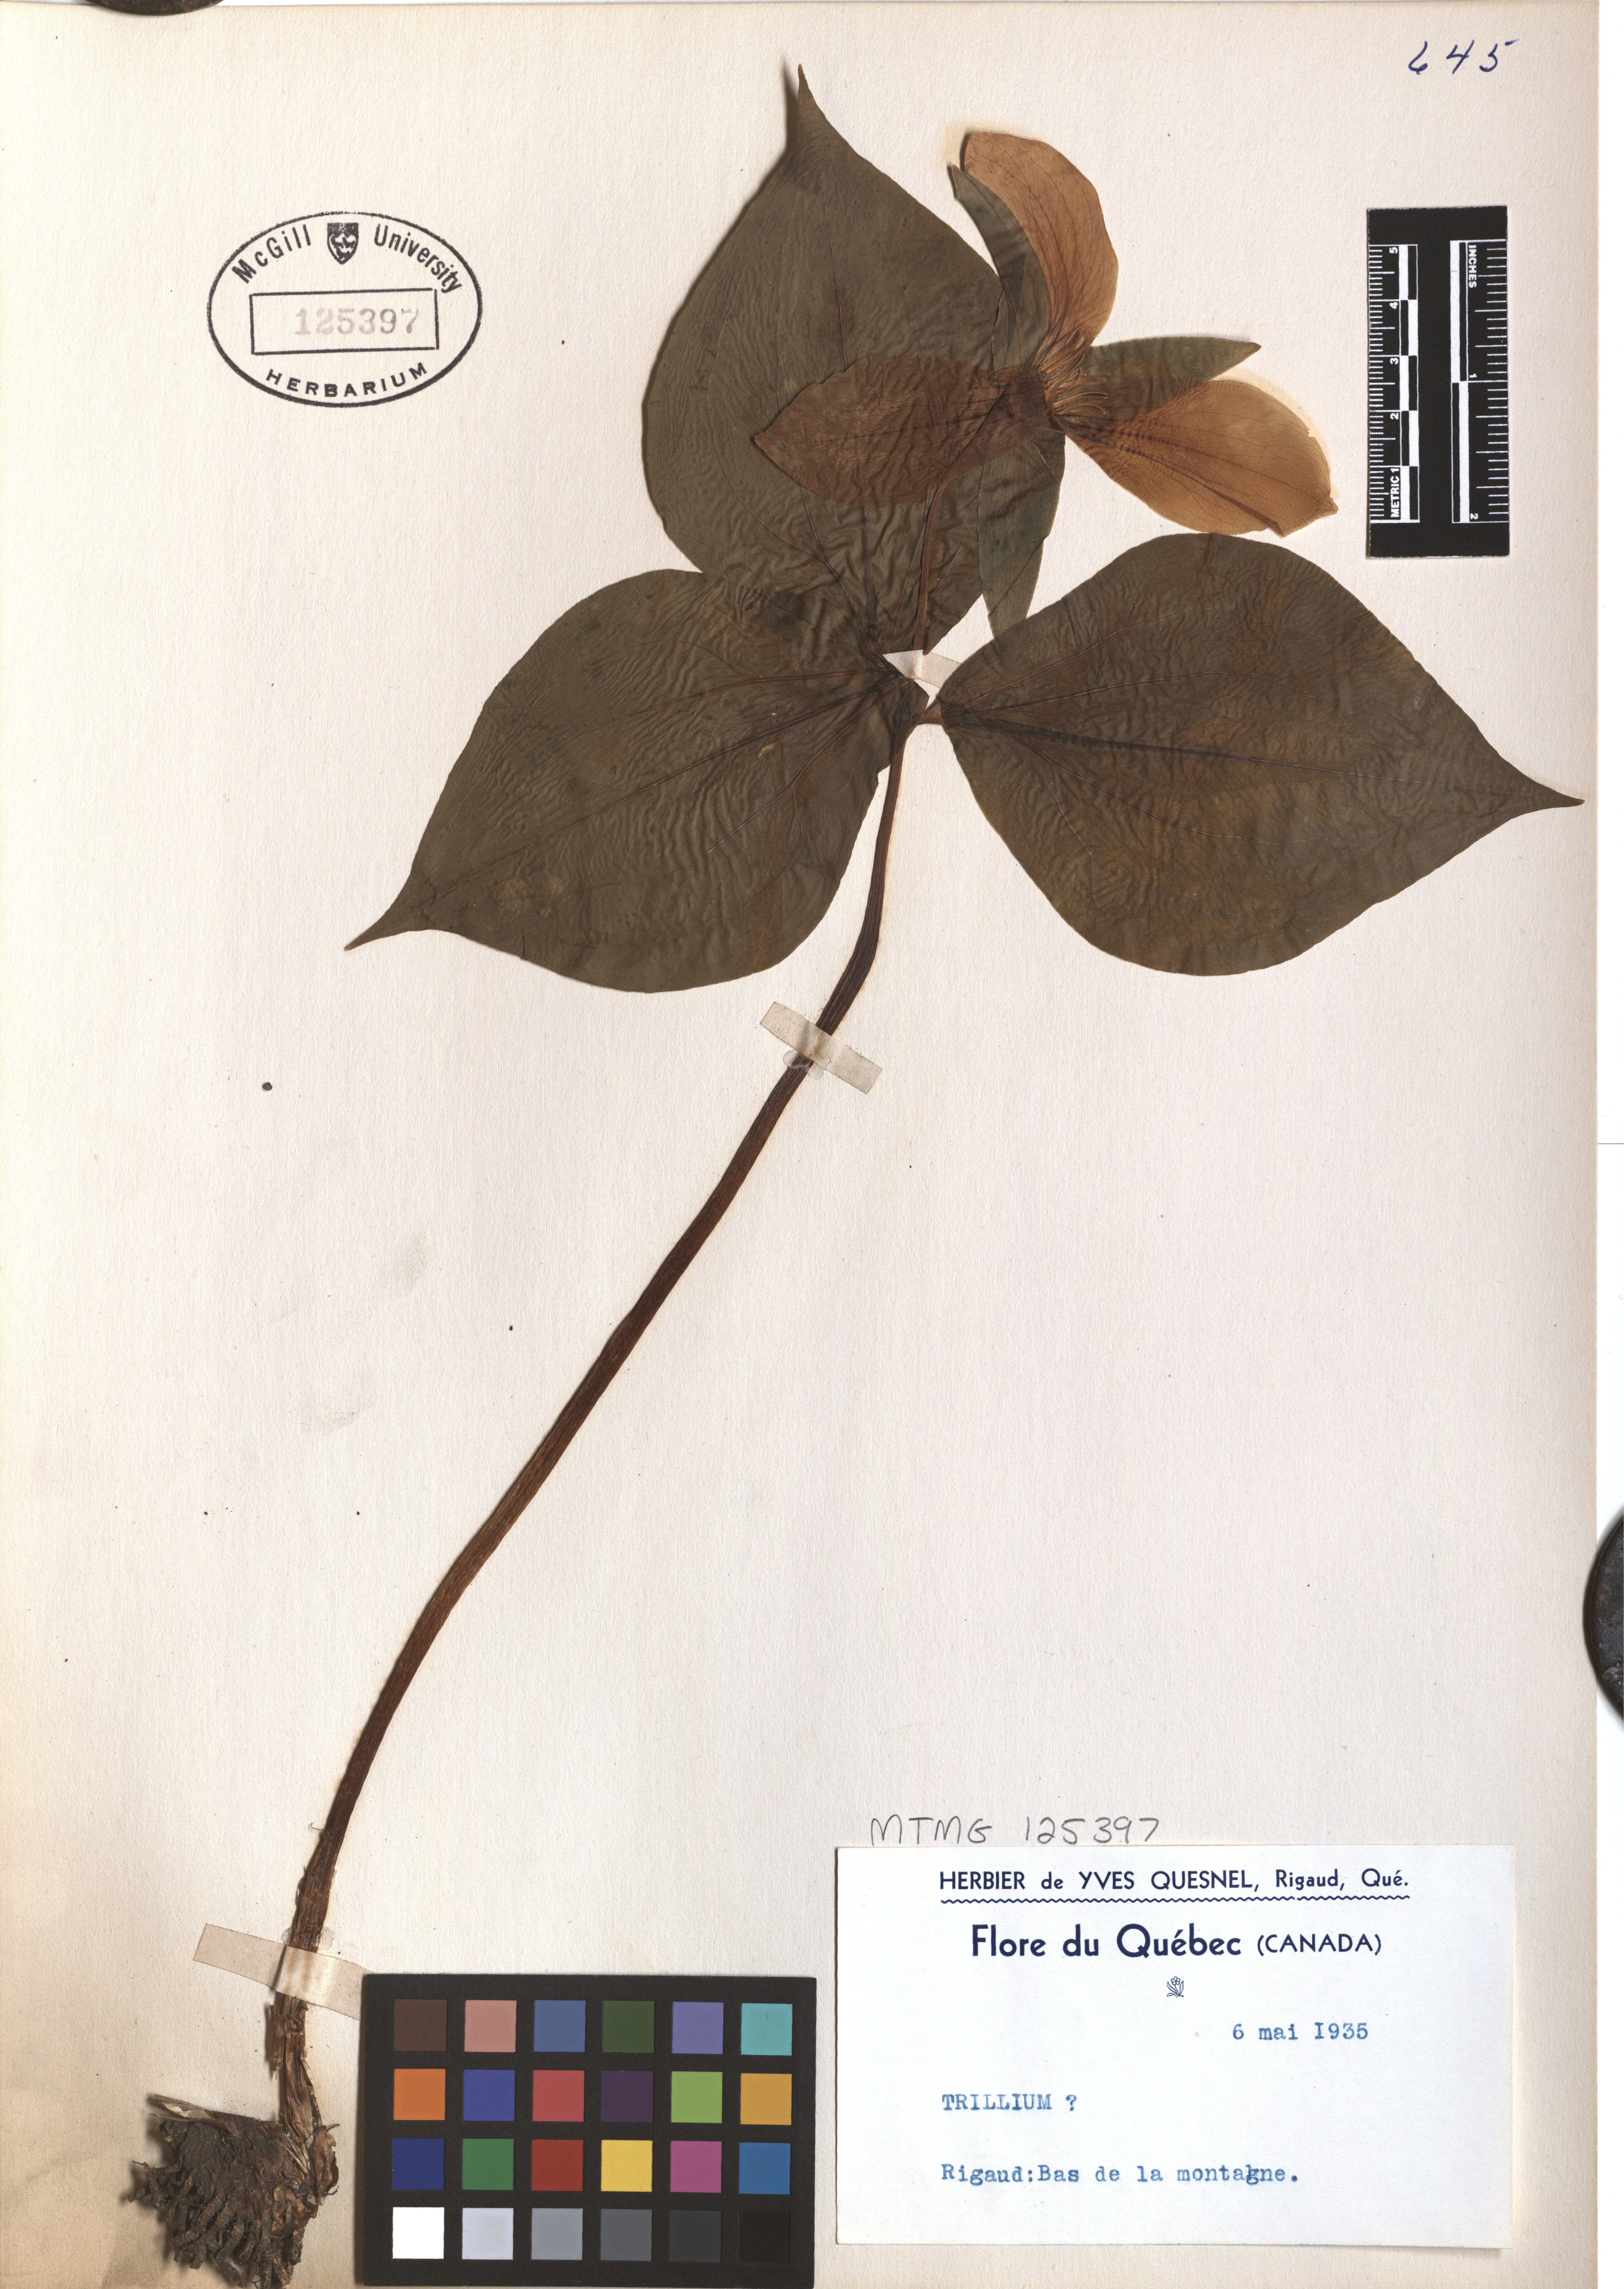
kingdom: Plantae
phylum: Tracheophyta
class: Liliopsida
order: Liliales
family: Melanthiaceae
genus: Trillium
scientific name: Trillium
